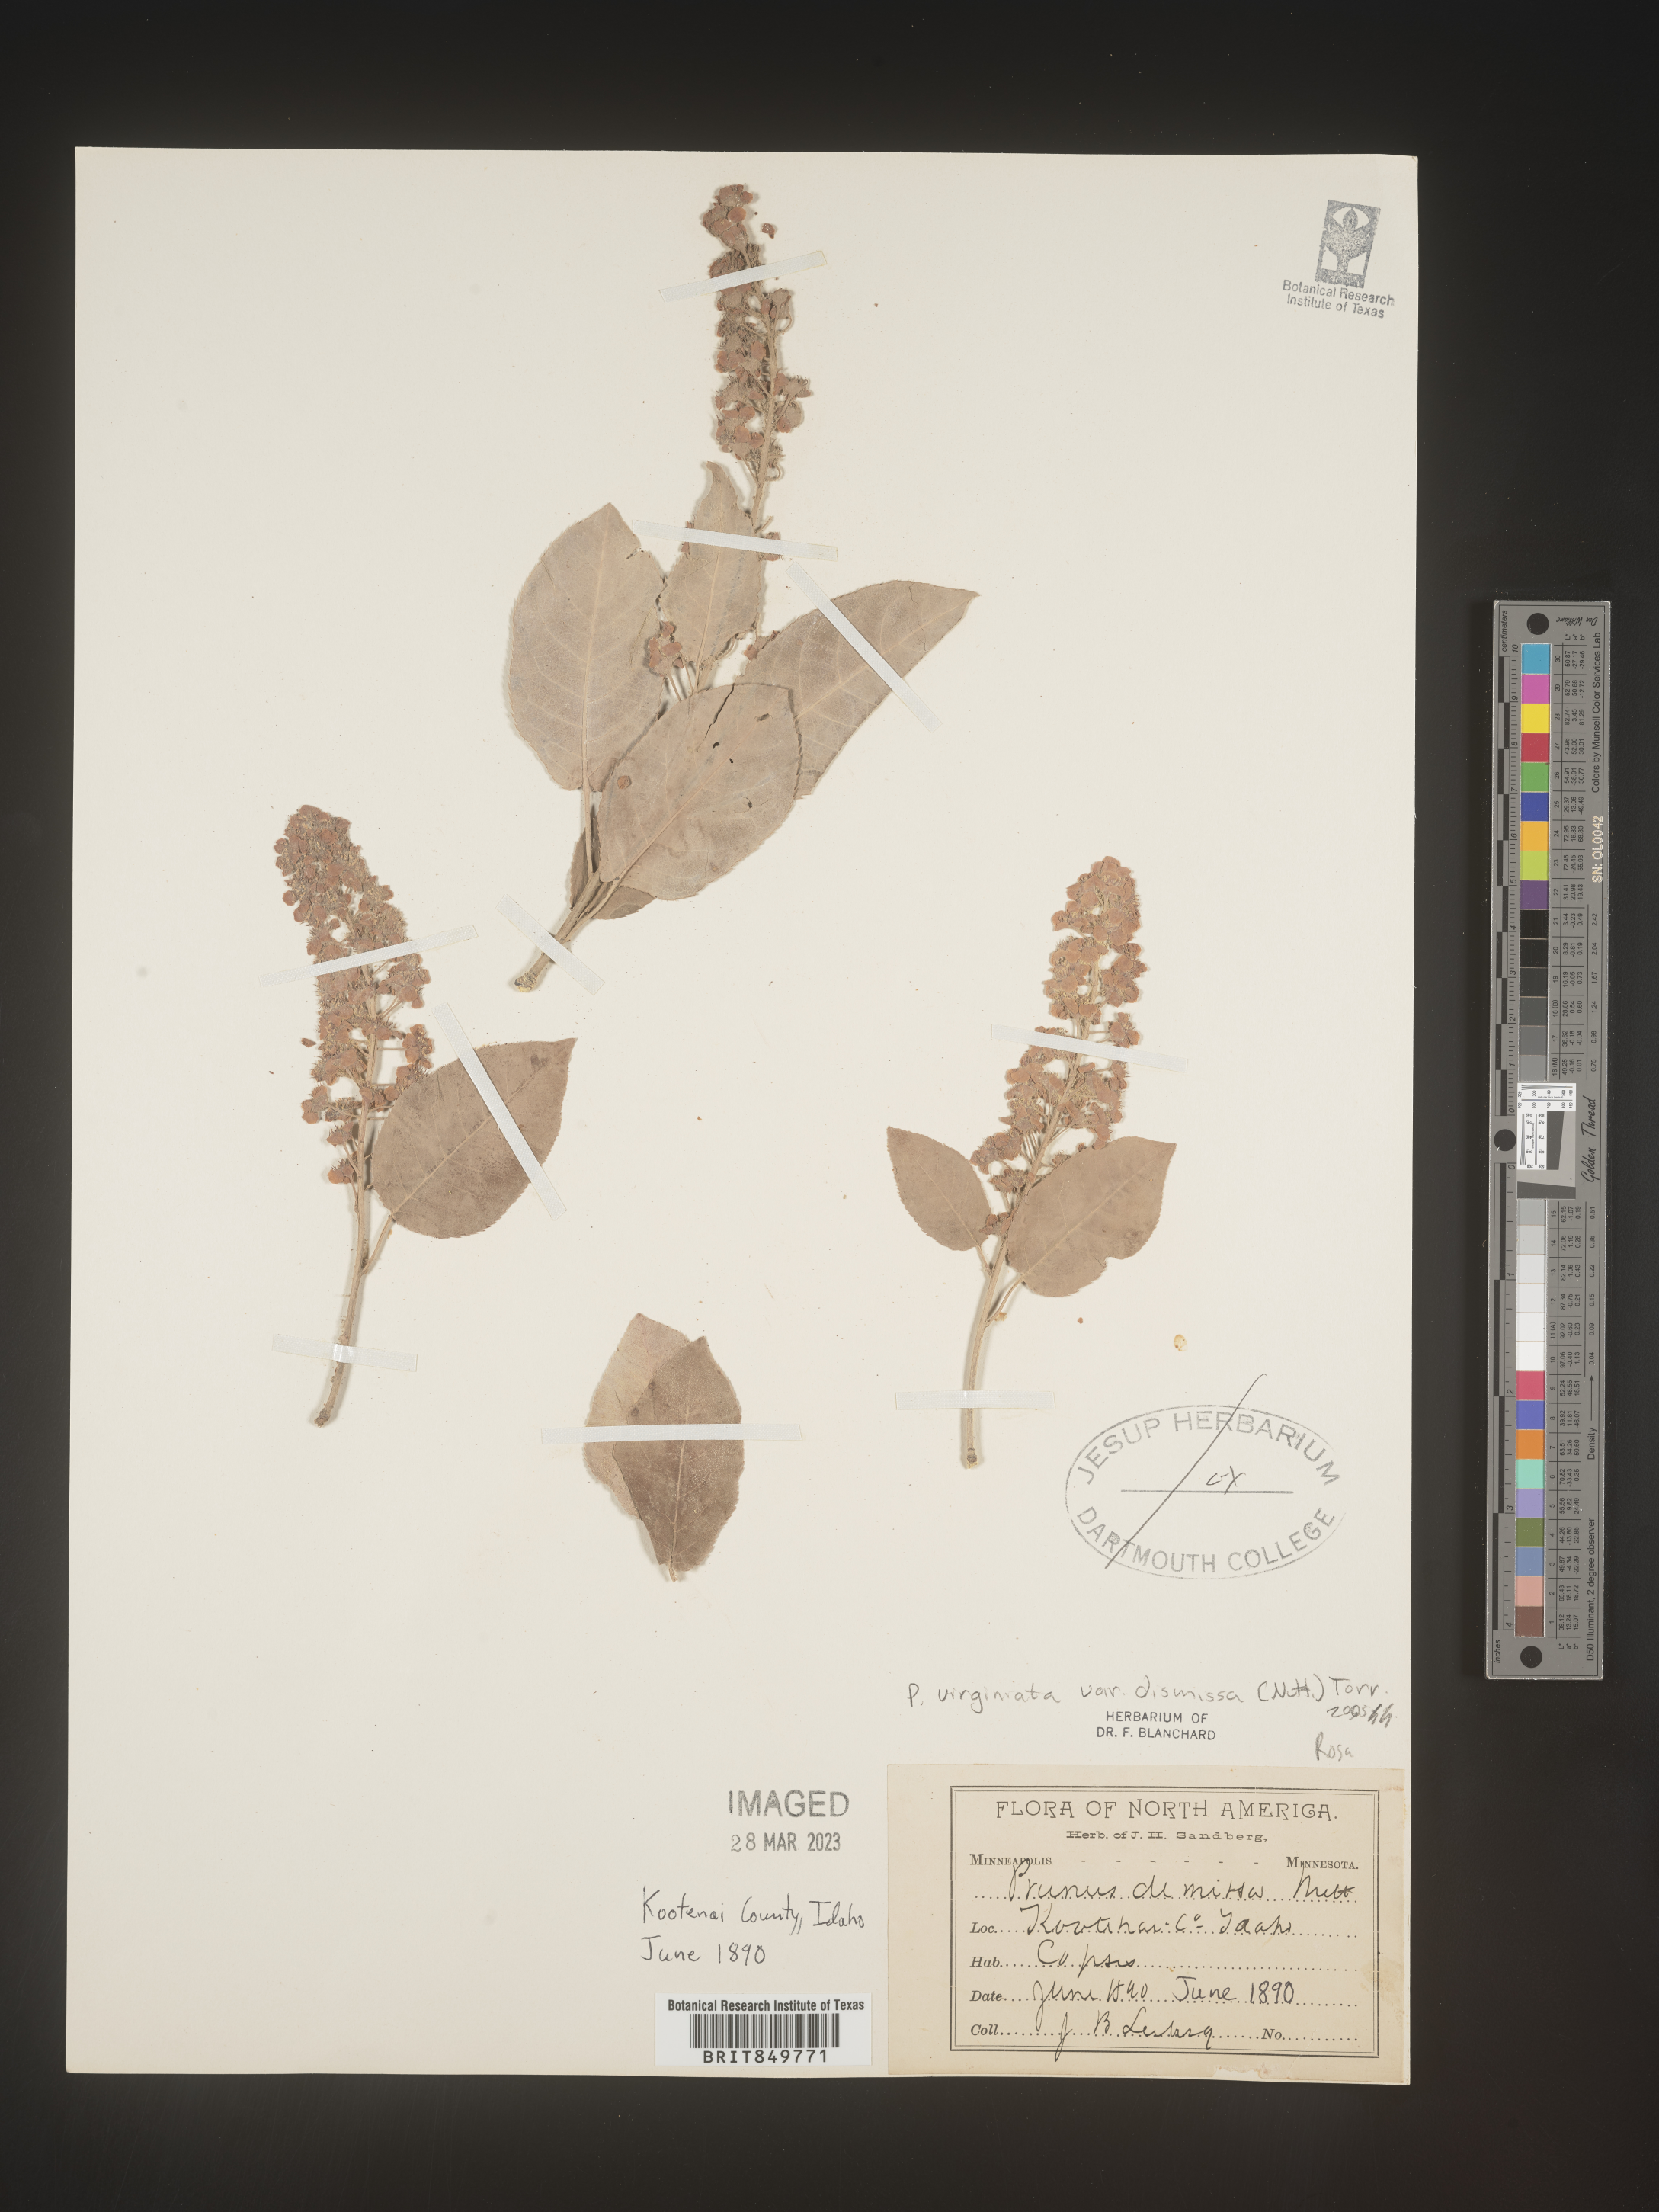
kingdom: Plantae
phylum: Tracheophyta
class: Magnoliopsida
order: Rosales
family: Rosaceae
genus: Prunus
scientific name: Prunus virginiana
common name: Chokecherry
